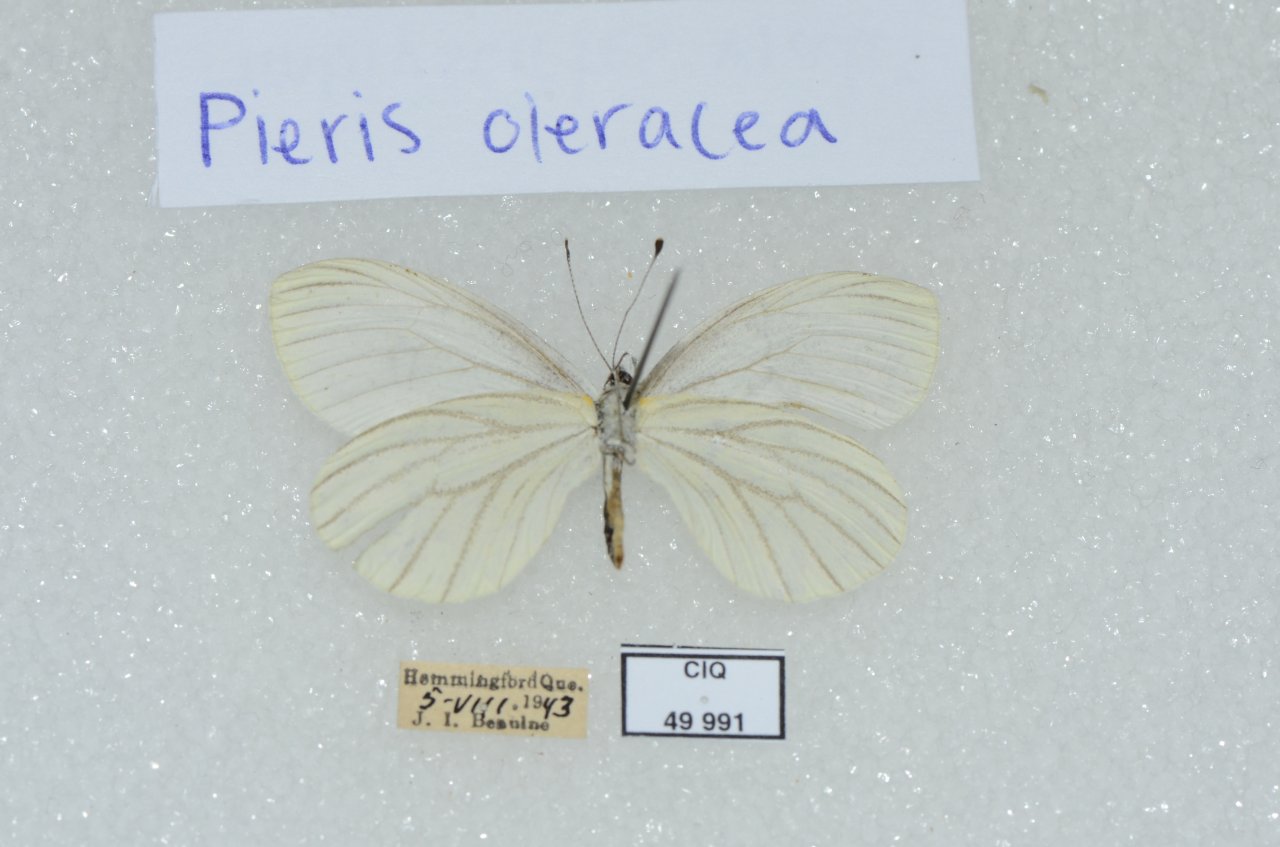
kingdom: Animalia
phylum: Arthropoda
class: Insecta
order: Lepidoptera
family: Pieridae
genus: Pieris
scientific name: Pieris oleracea
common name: Mustard White
